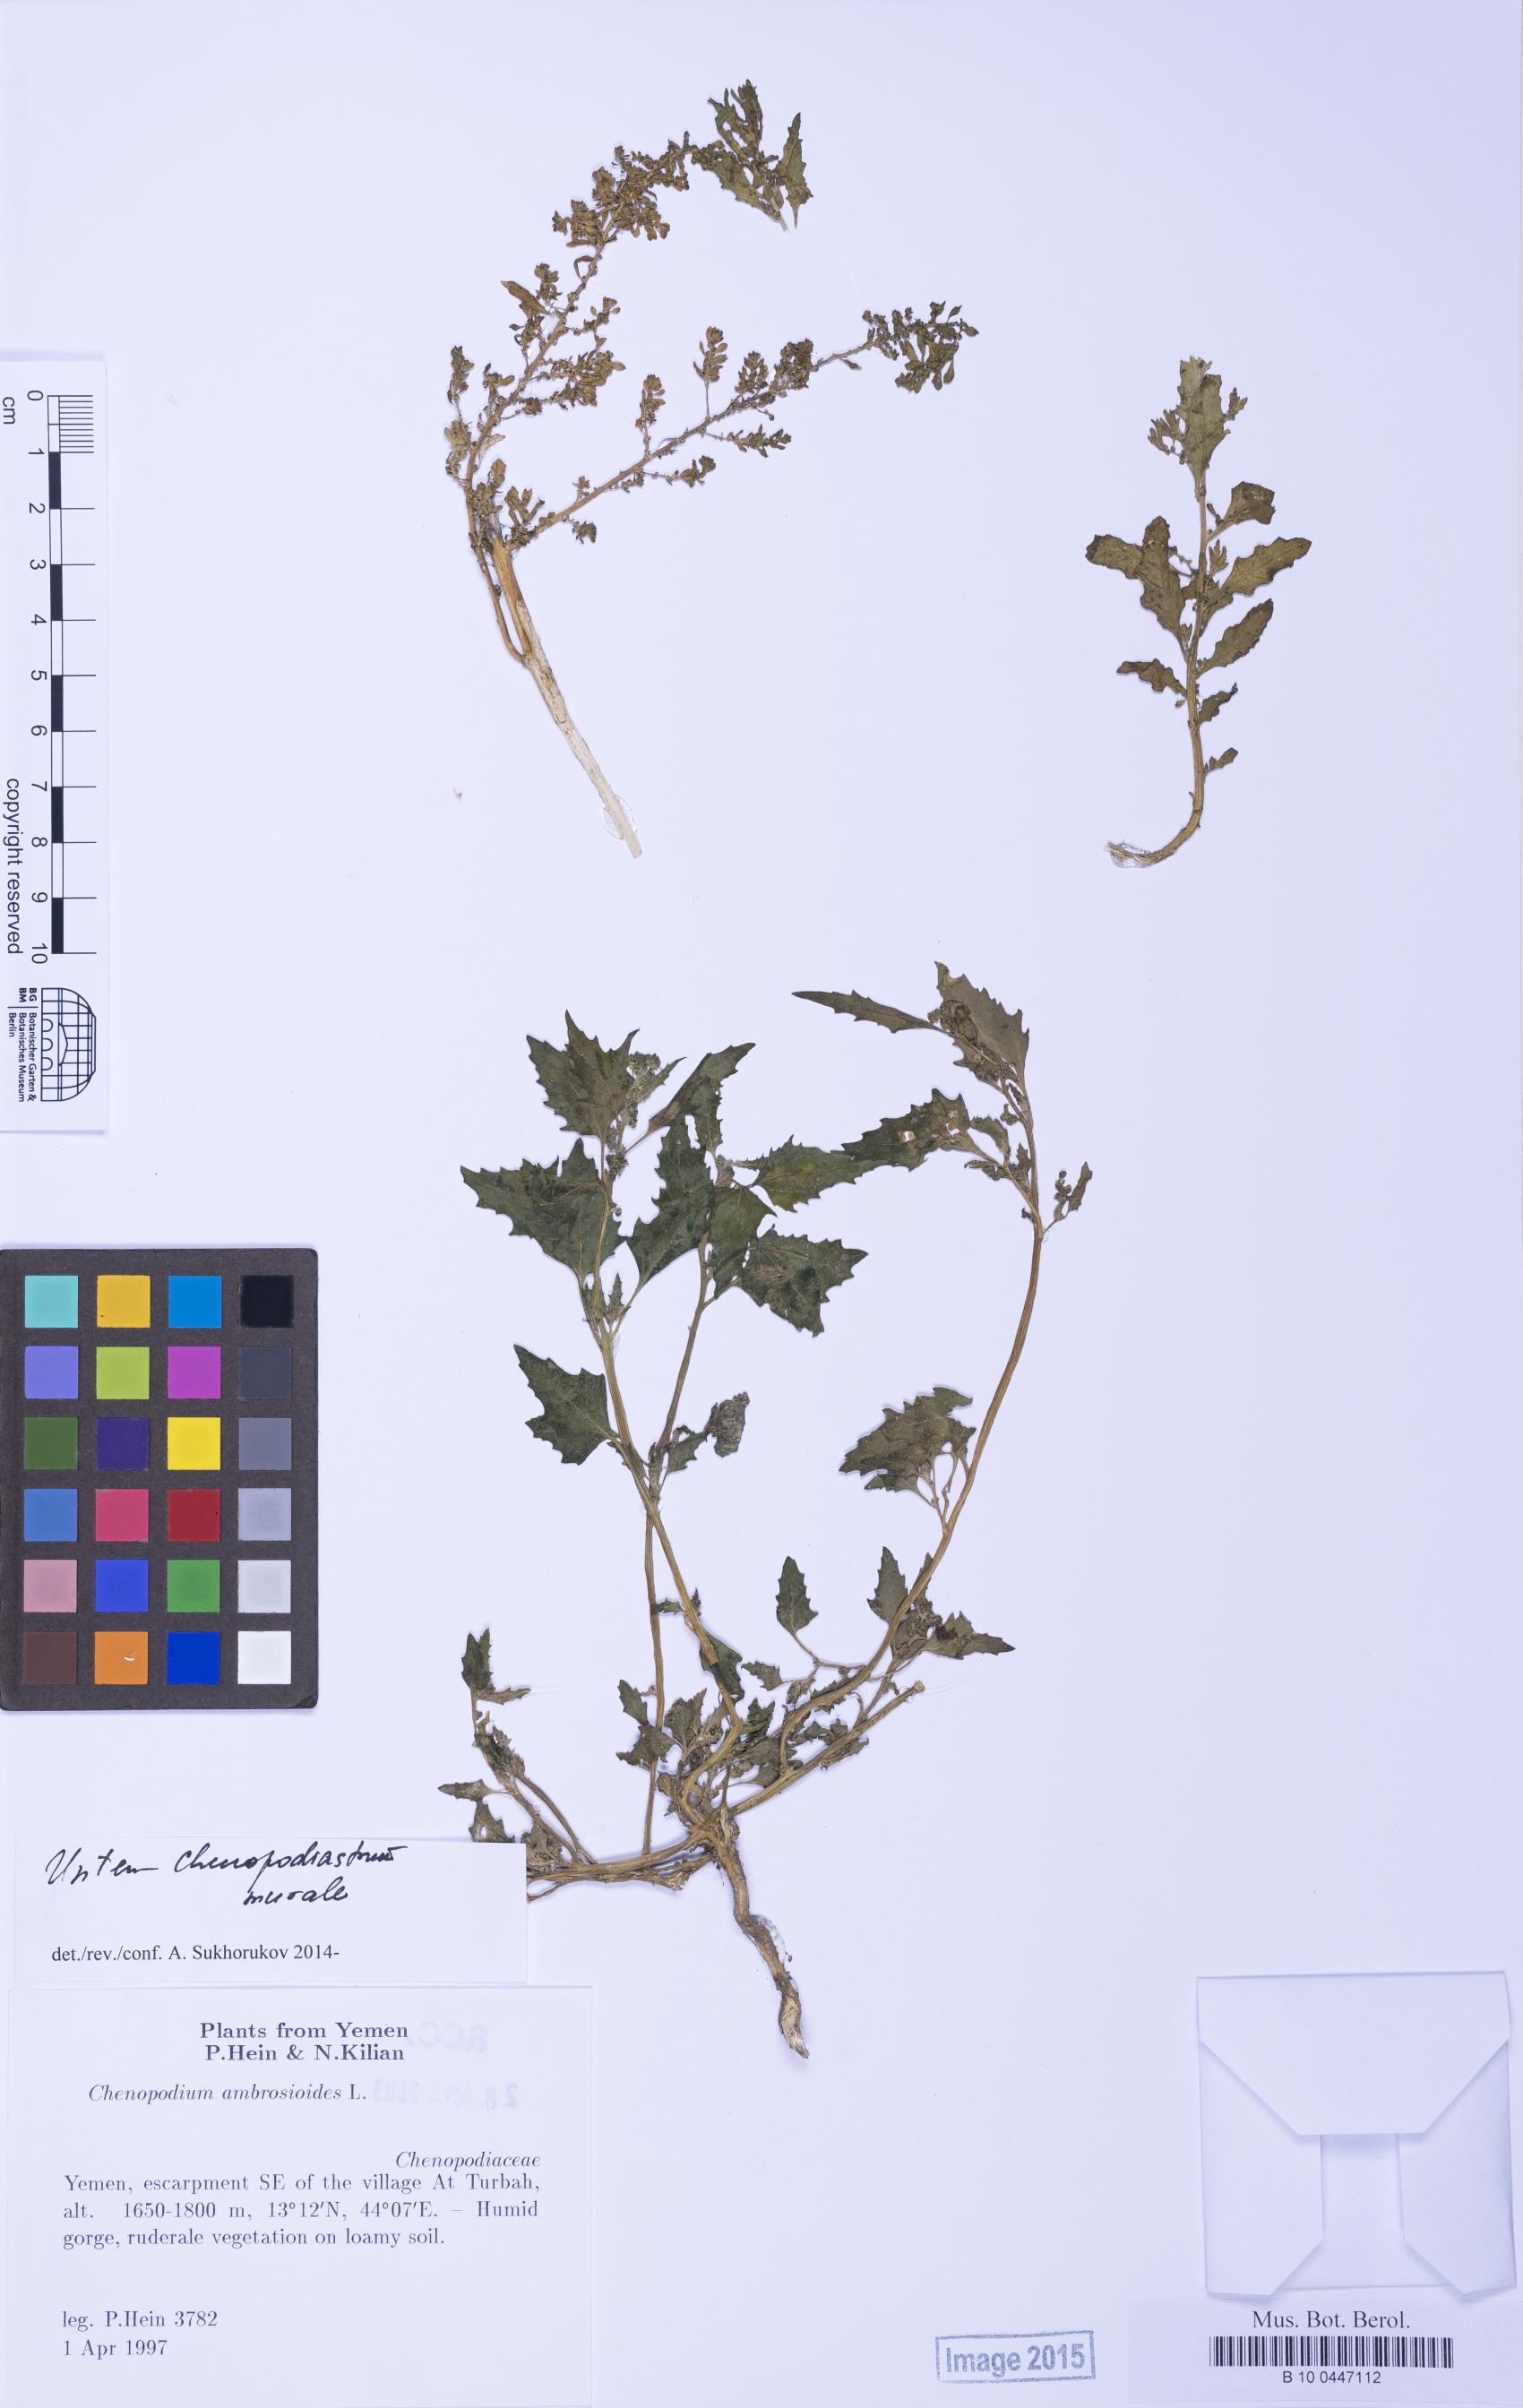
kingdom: Plantae
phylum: Tracheophyta
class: Magnoliopsida
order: Caryophyllales
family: Amaranthaceae
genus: Dysphania
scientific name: Dysphania ambrosioides
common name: Wormseed
